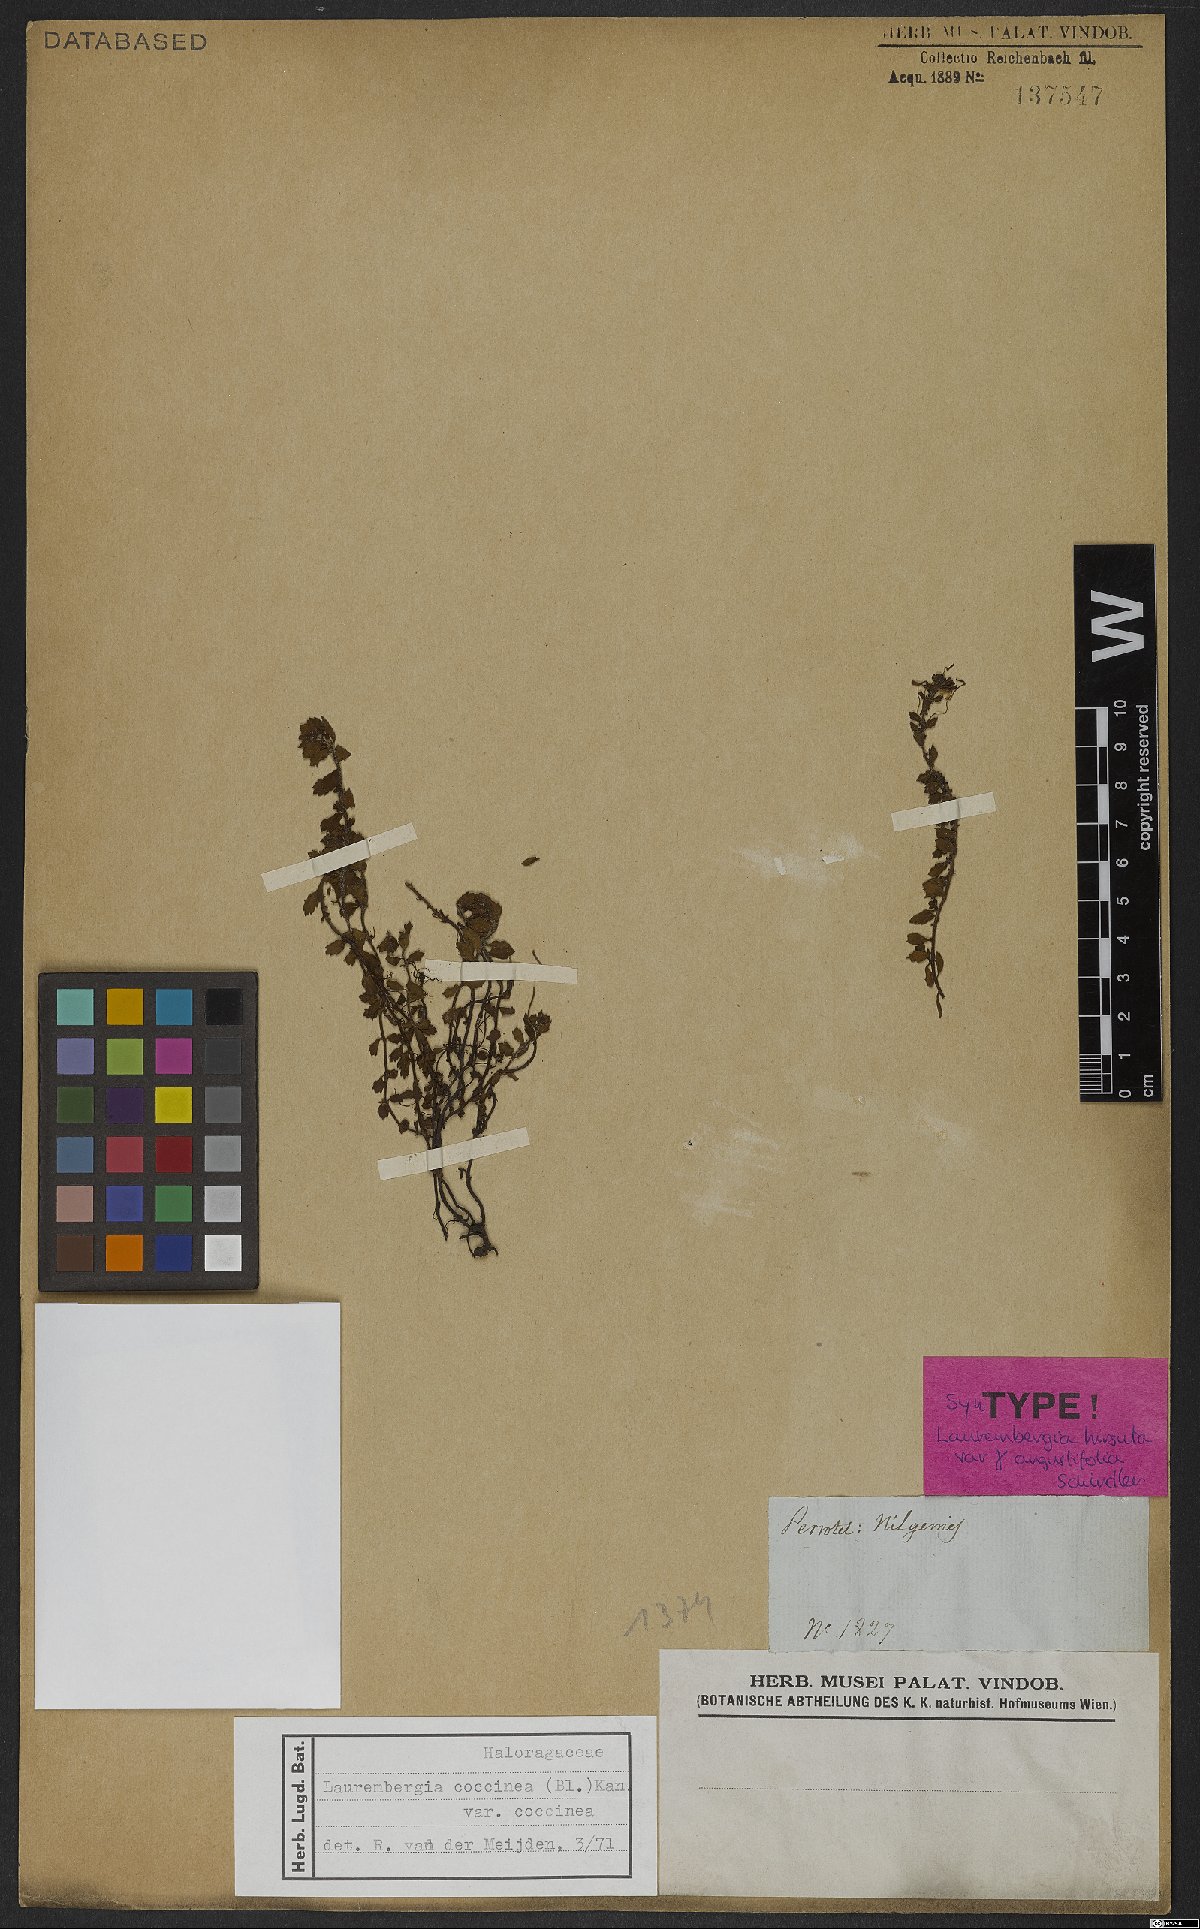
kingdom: Plantae
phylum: Tracheophyta
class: Magnoliopsida
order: Saxifragales
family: Haloragaceae
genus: Laurembergia
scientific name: Laurembergia coccinea
